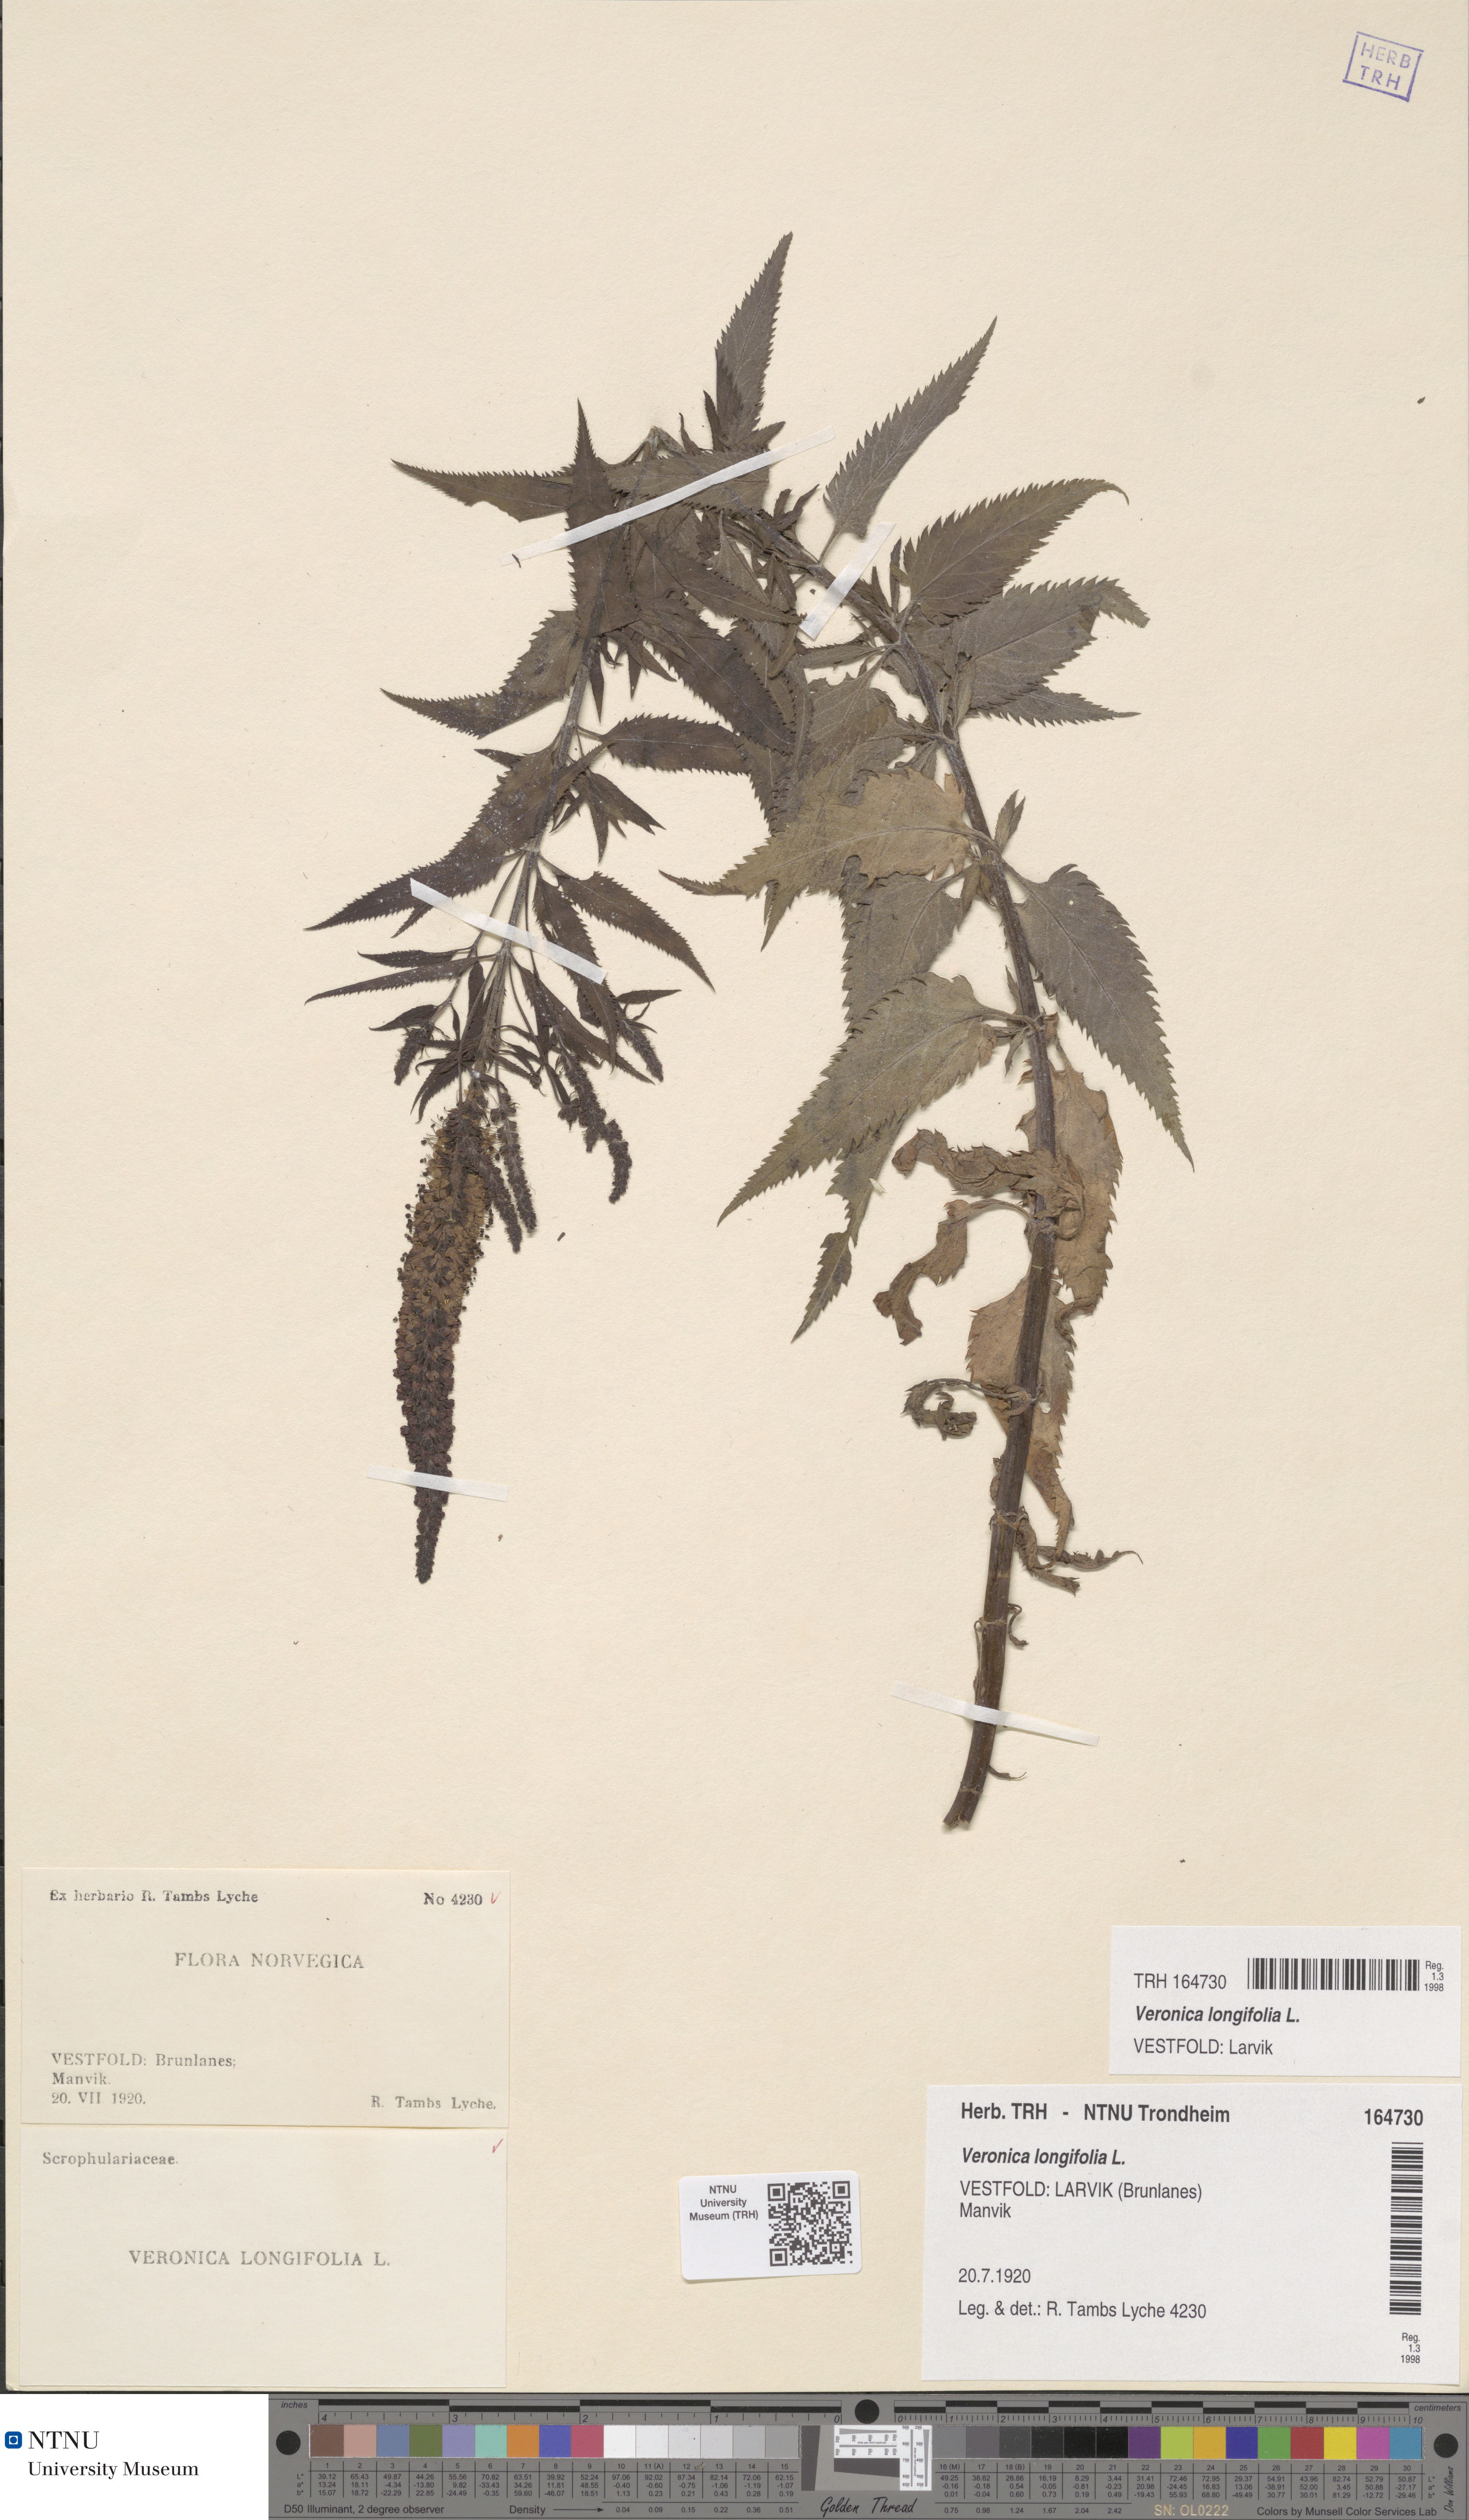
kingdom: Plantae
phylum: Tracheophyta
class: Magnoliopsida
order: Lamiales
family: Plantaginaceae
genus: Veronica
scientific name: Veronica longifolia
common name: Garden speedwell
